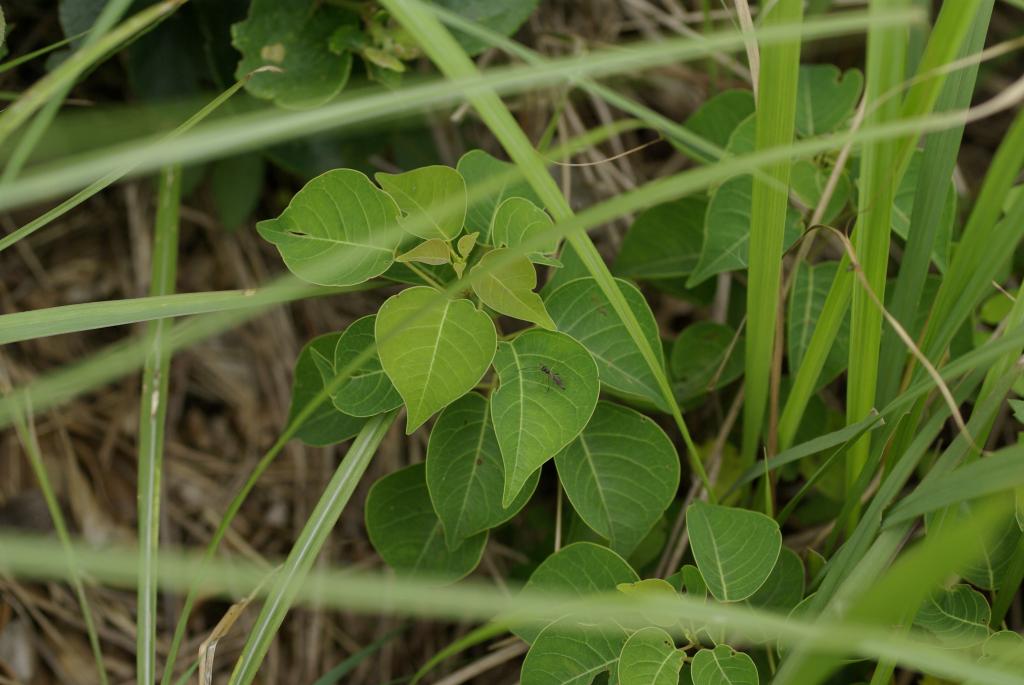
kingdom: Plantae
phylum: Tracheophyta
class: Magnoliopsida
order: Malpighiales
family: Euphorbiaceae
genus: Triadica
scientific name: Triadica sebifera
